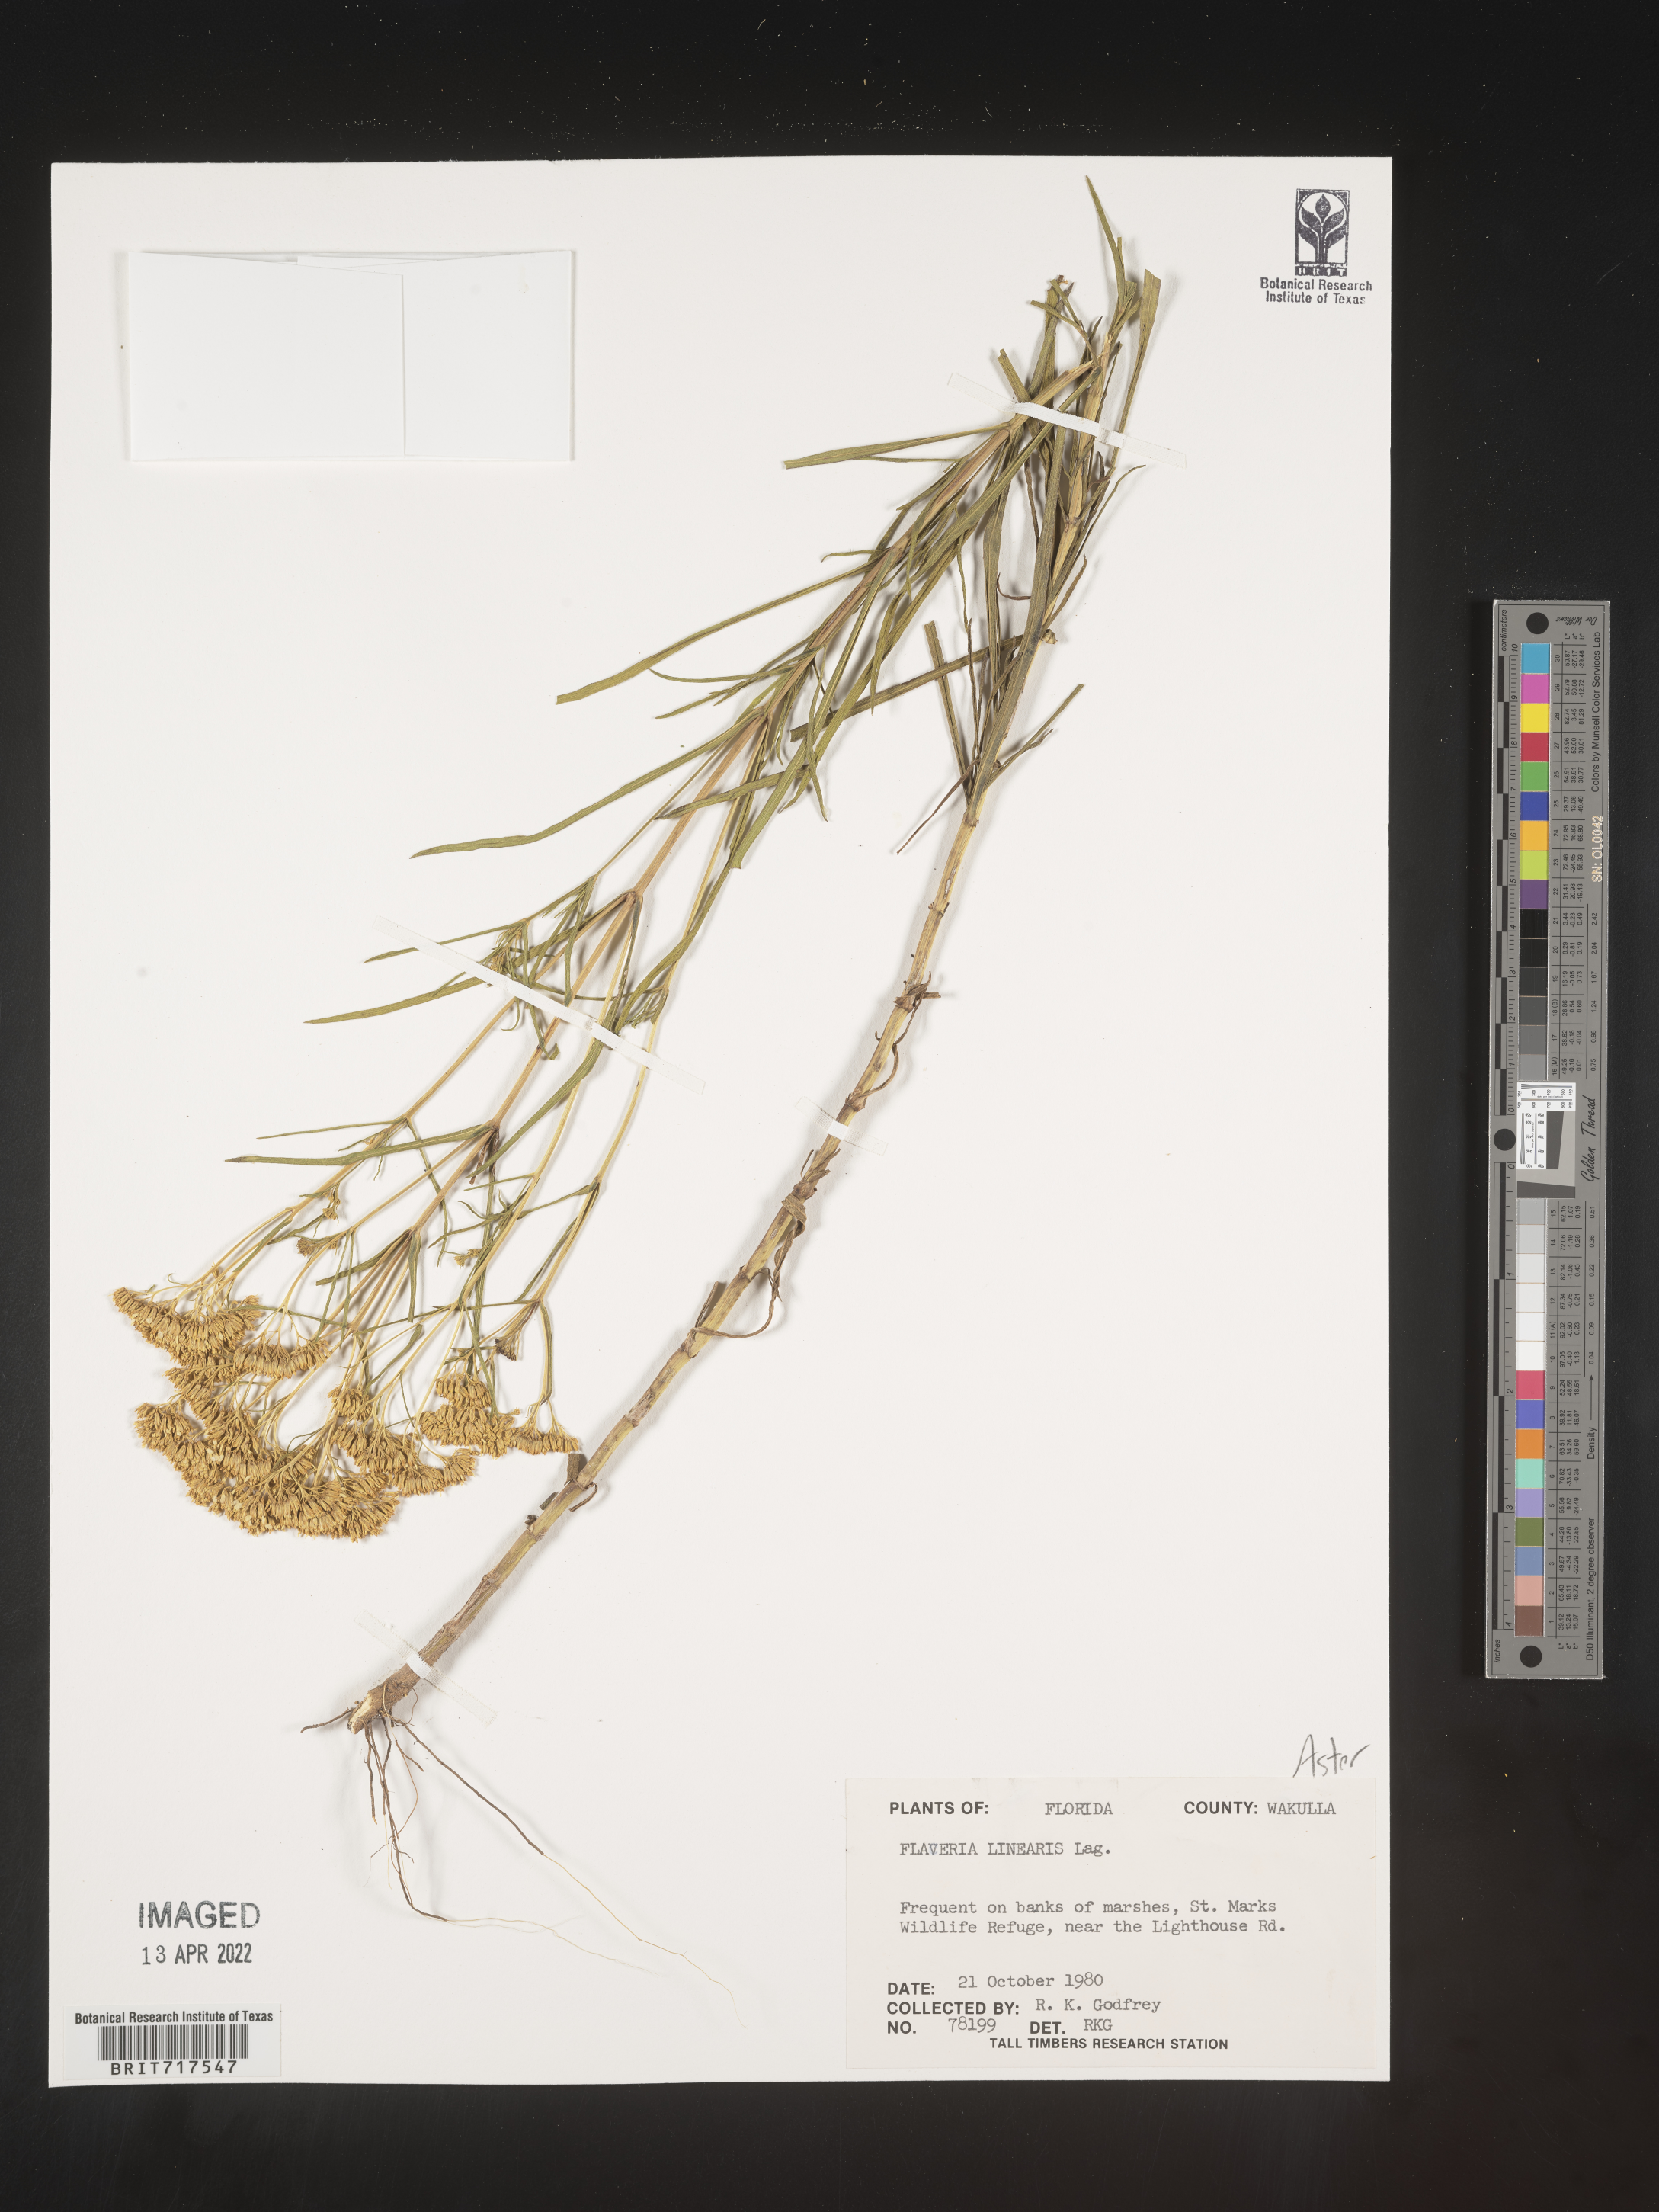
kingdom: Plantae
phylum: Tracheophyta
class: Magnoliopsida
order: Asterales
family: Asteraceae
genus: Flaveria
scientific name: Flaveria linearis
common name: Yellowtop
